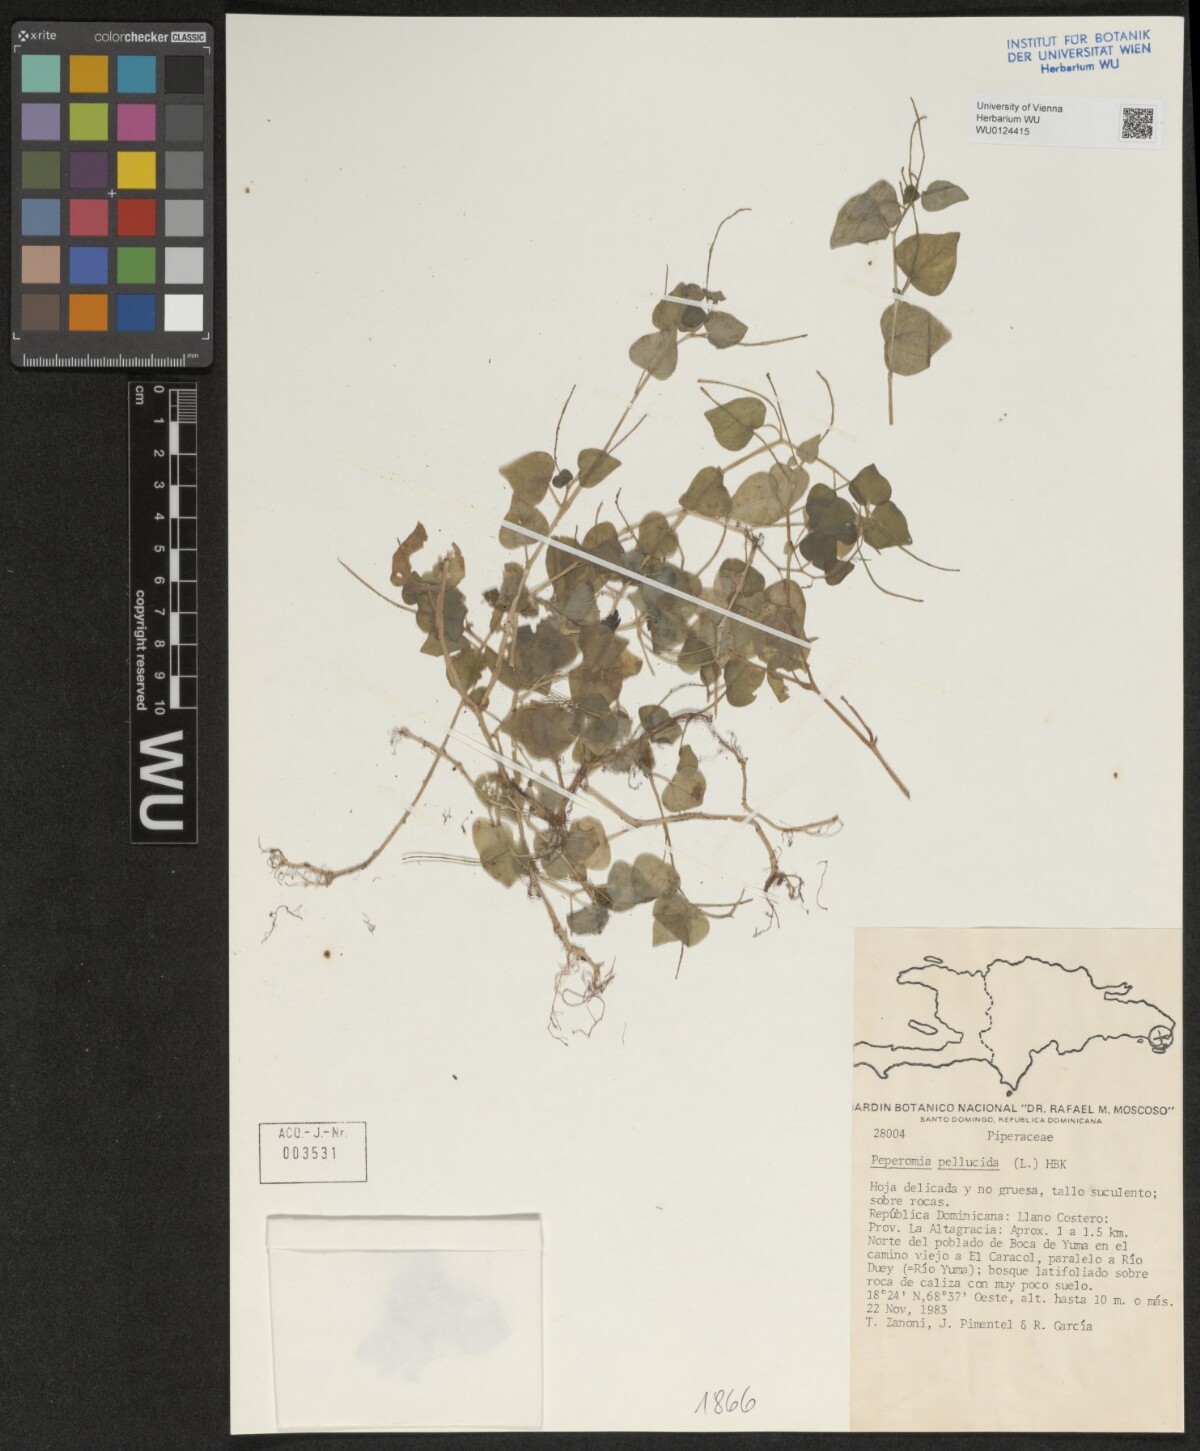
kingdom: Plantae
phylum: Tracheophyta
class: Magnoliopsida
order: Piperales
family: Piperaceae
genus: Peperomia
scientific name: Peperomia pellucida
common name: Man to man
